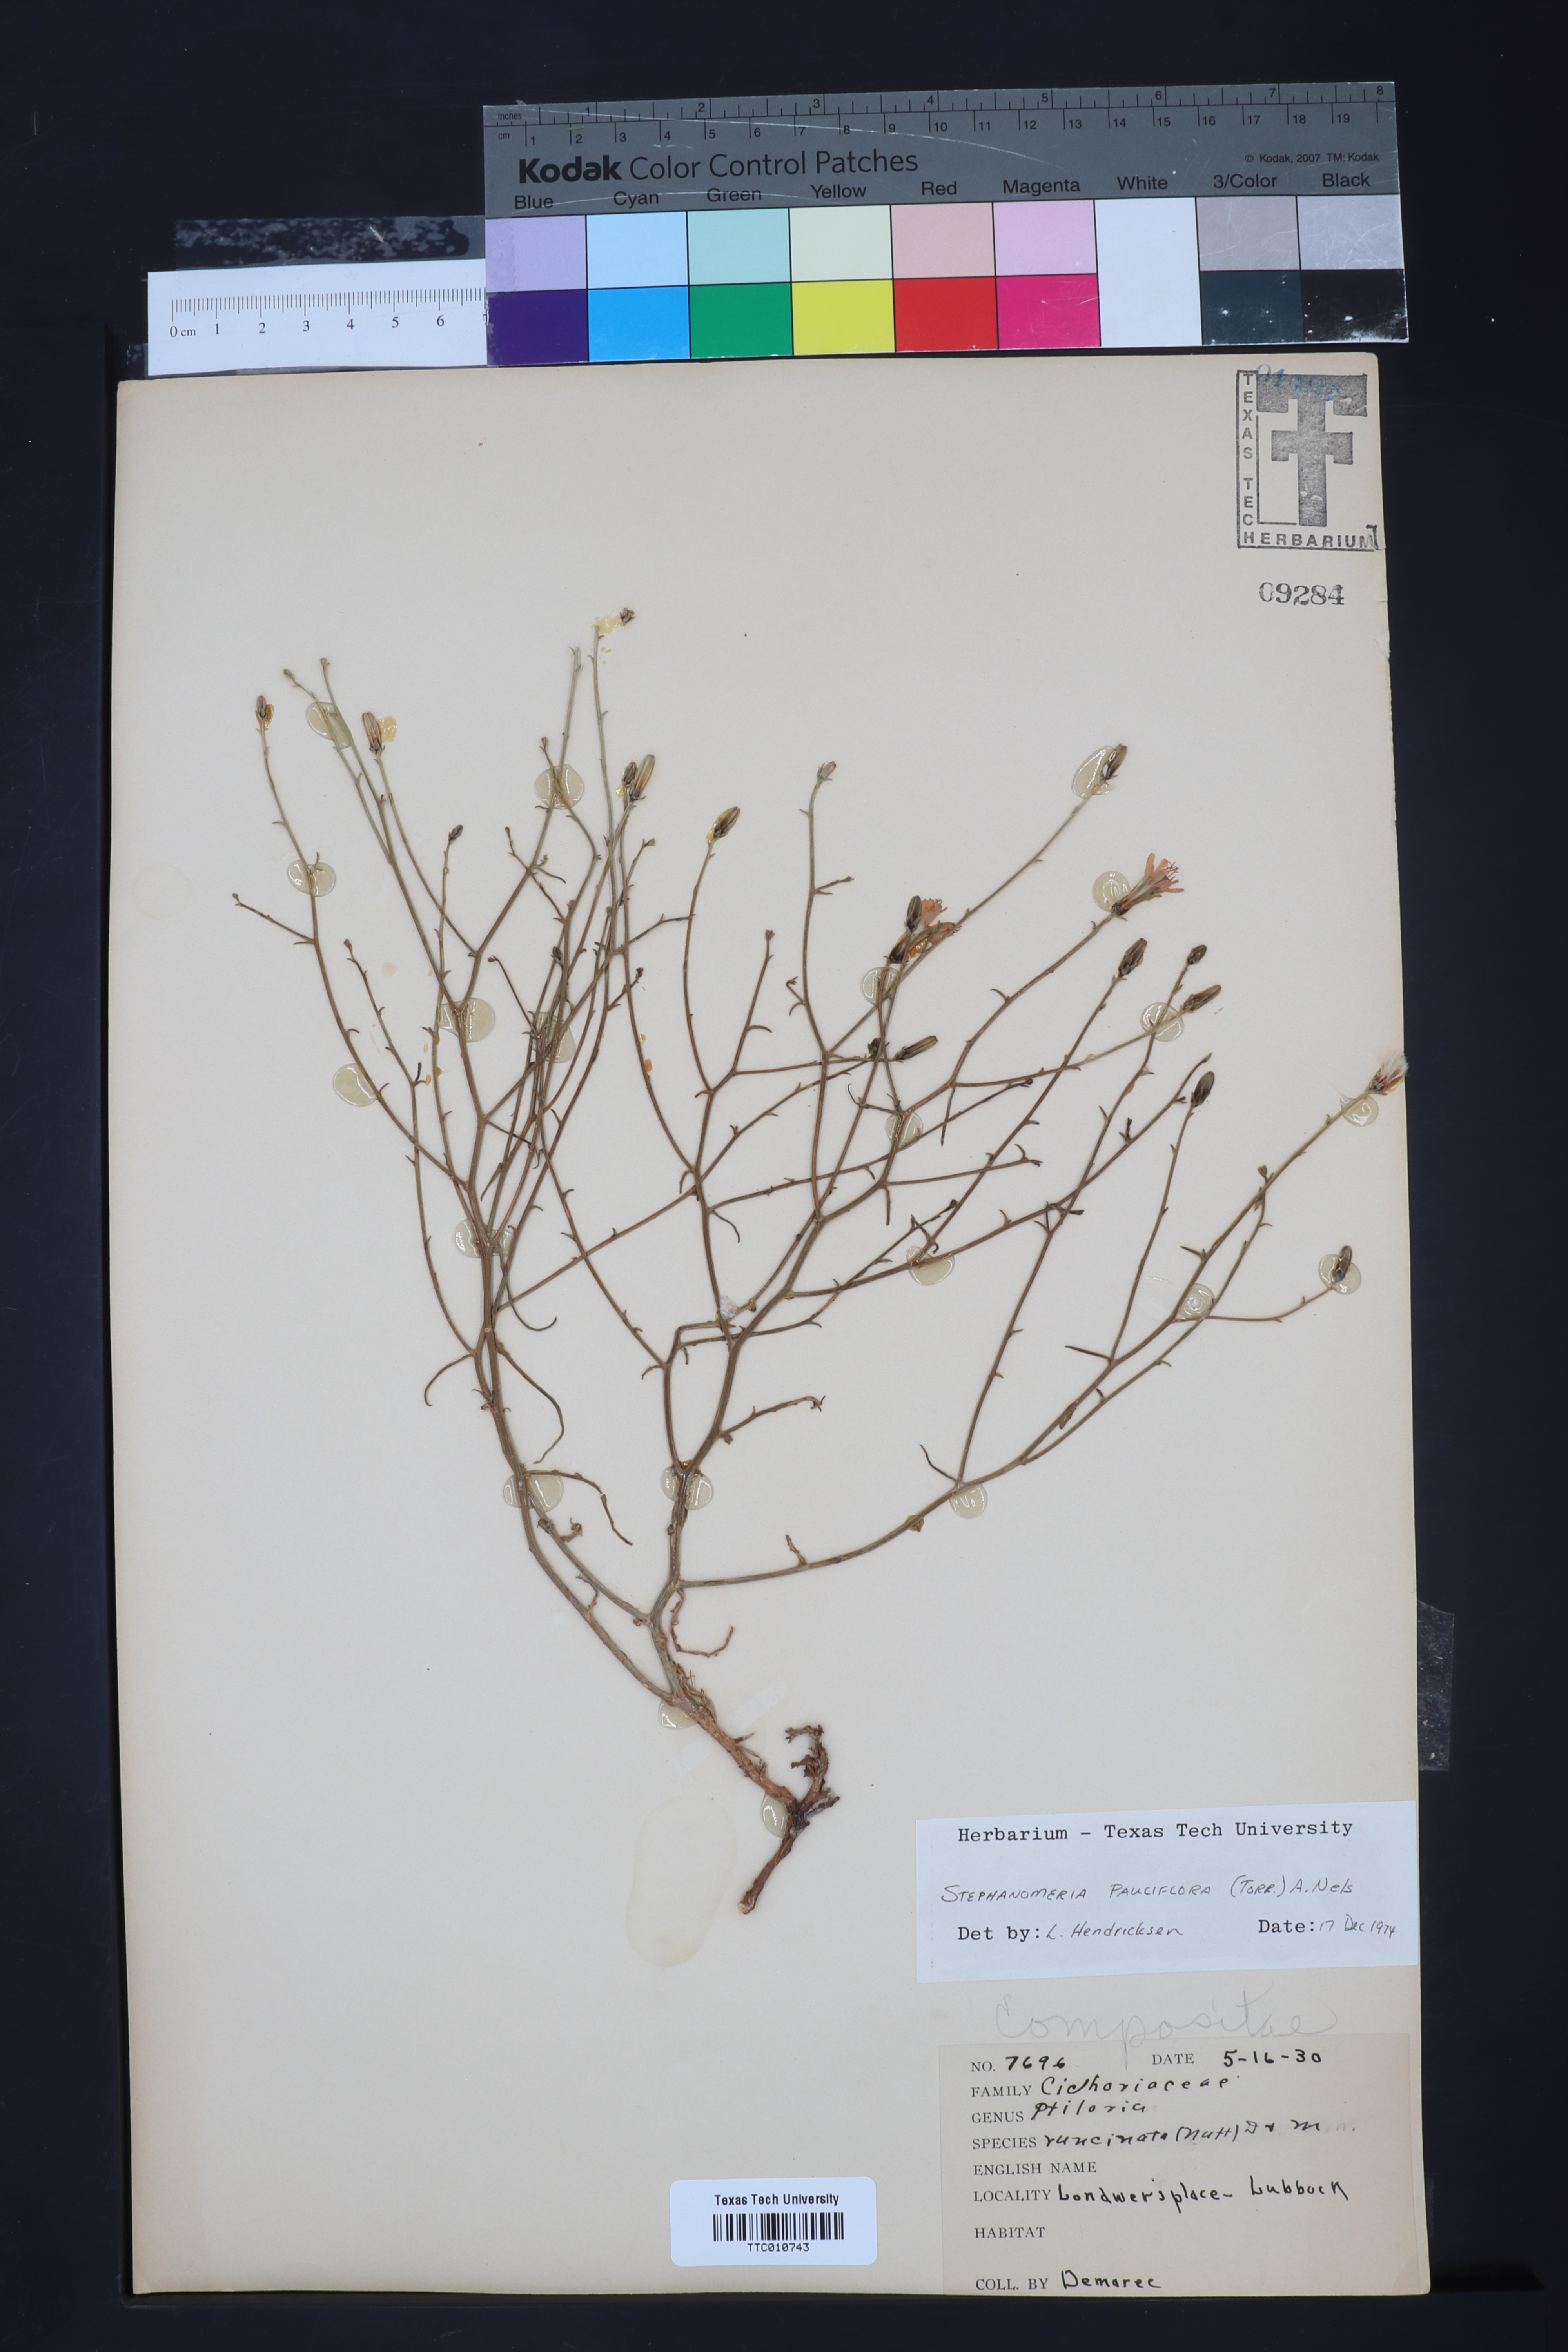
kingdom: Plantae
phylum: Tracheophyta
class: Magnoliopsida
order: Asterales
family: Asteraceae
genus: Stephanomeria
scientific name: Stephanomeria pauciflora
